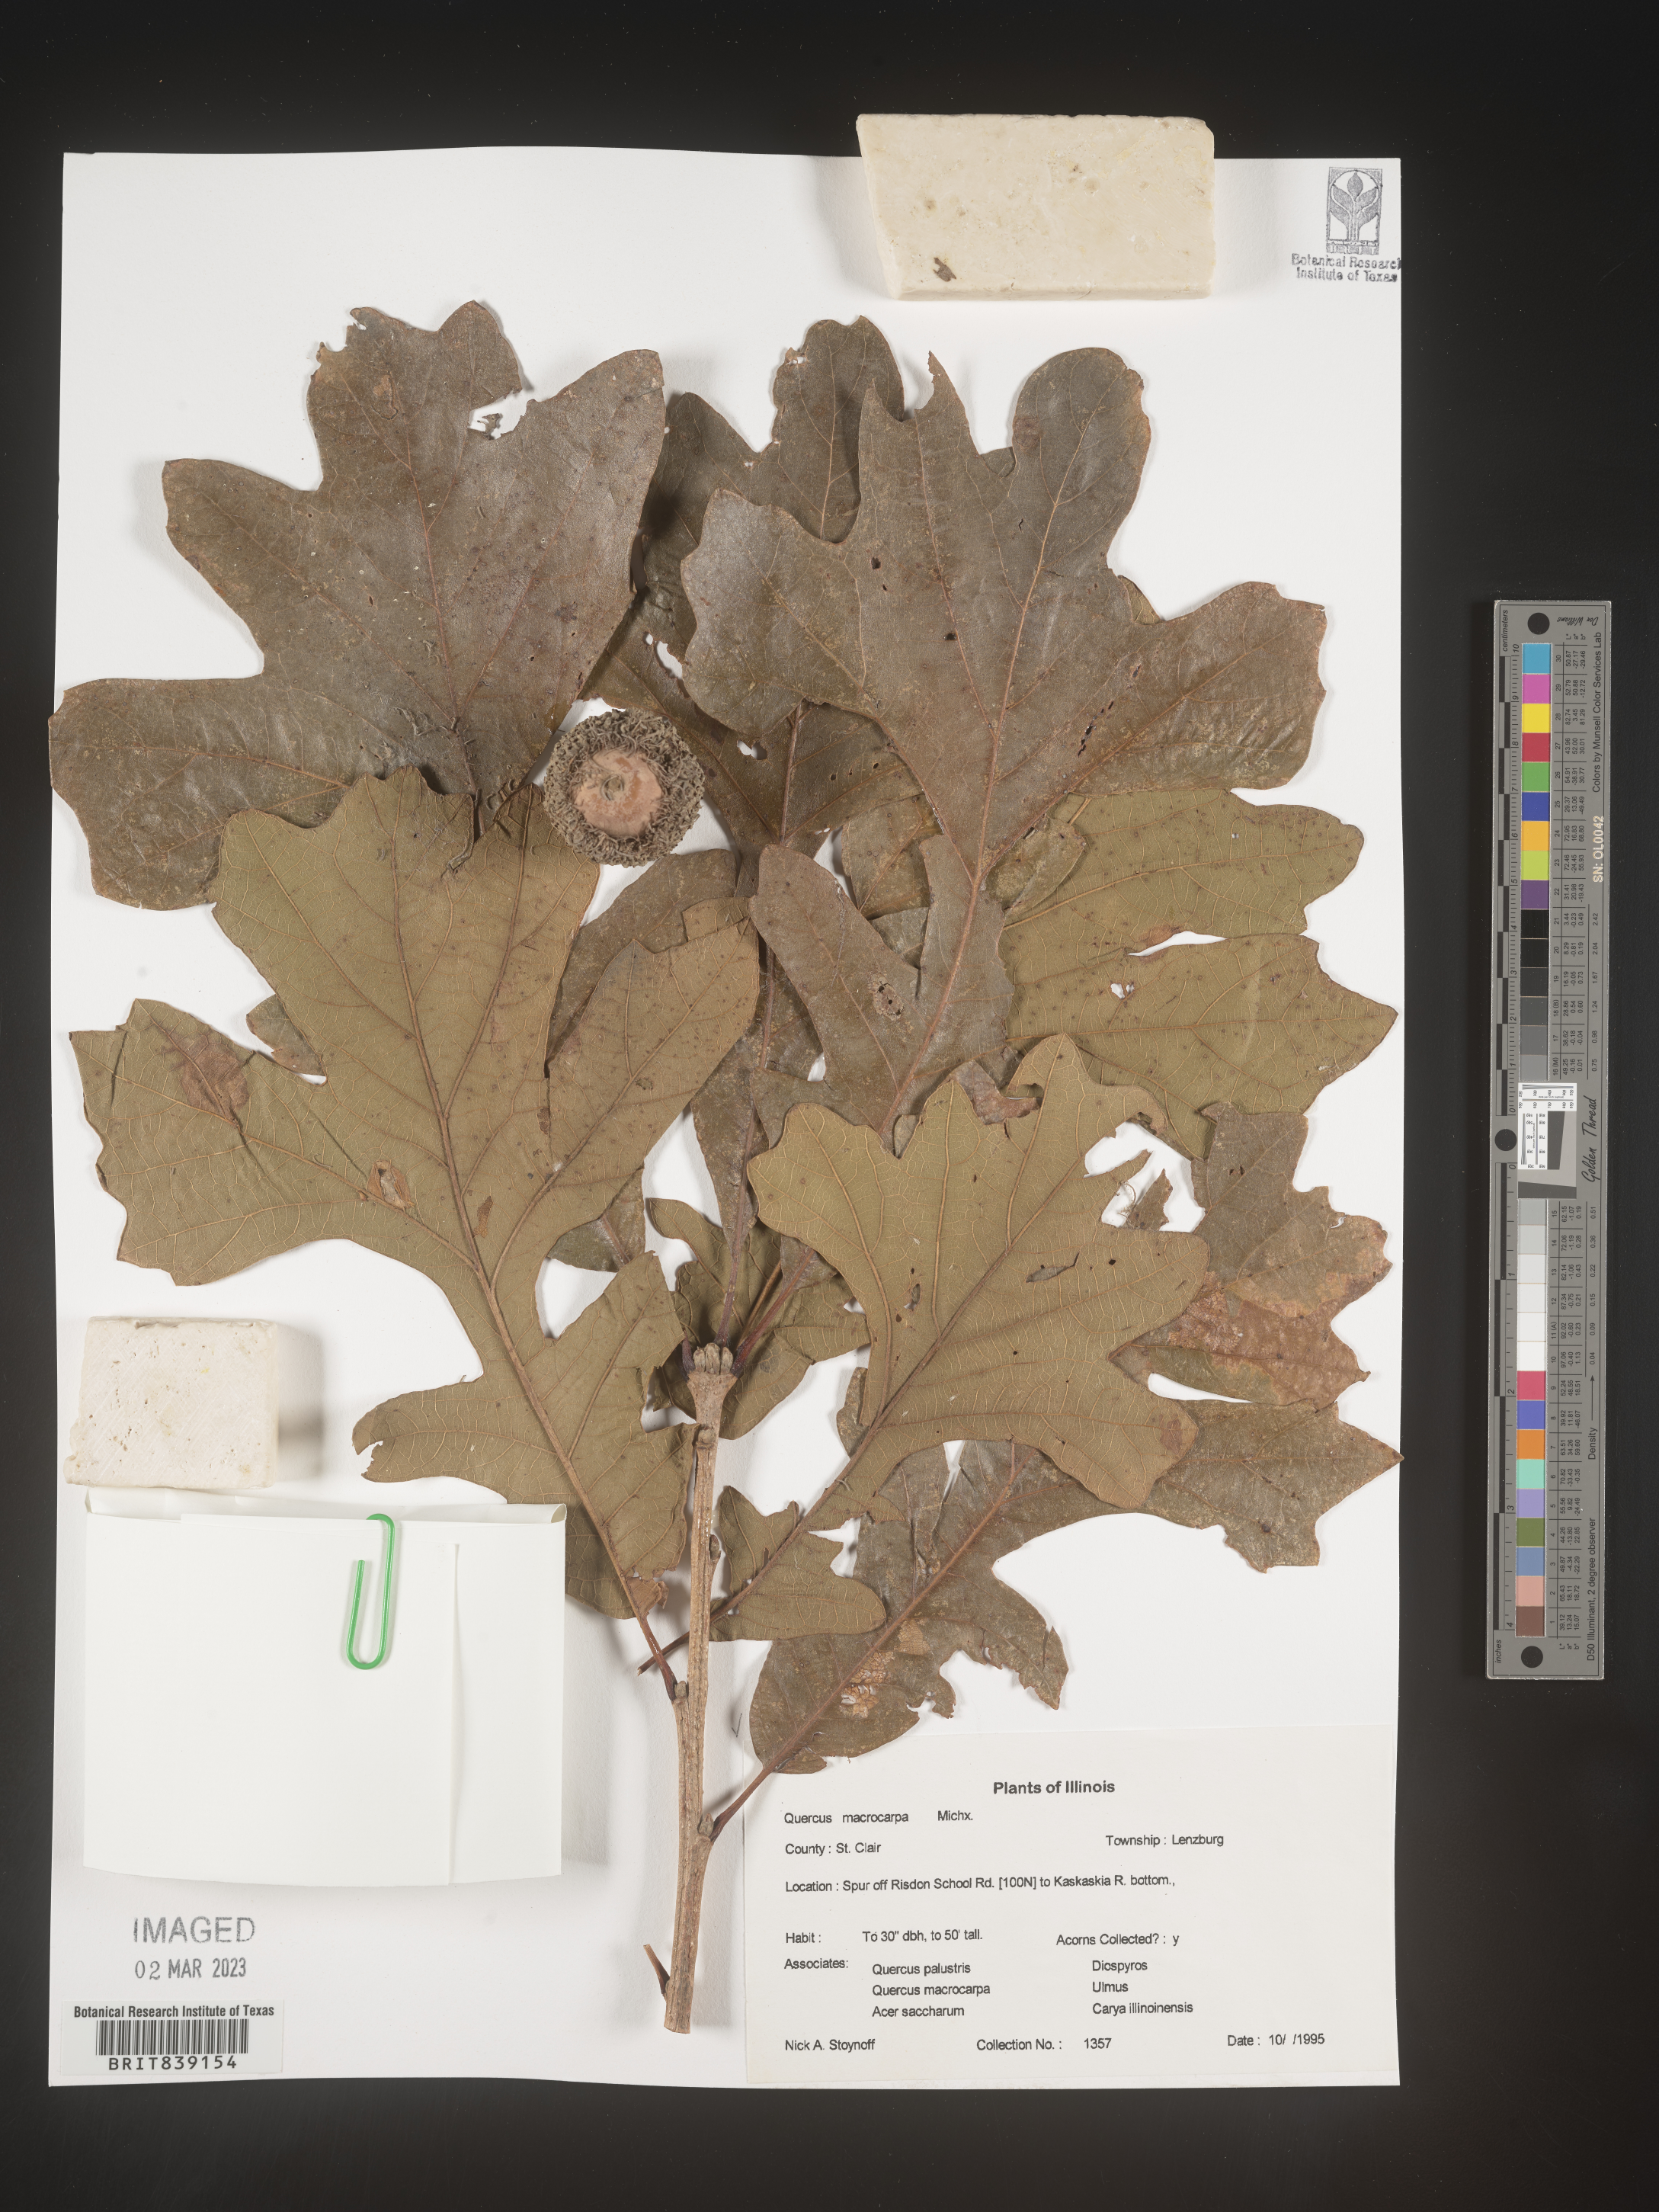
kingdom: Plantae
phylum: Tracheophyta
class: Magnoliopsida
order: Fagales
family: Fagaceae
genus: Quercus
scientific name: Quercus macrocarpa
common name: Bur oak
